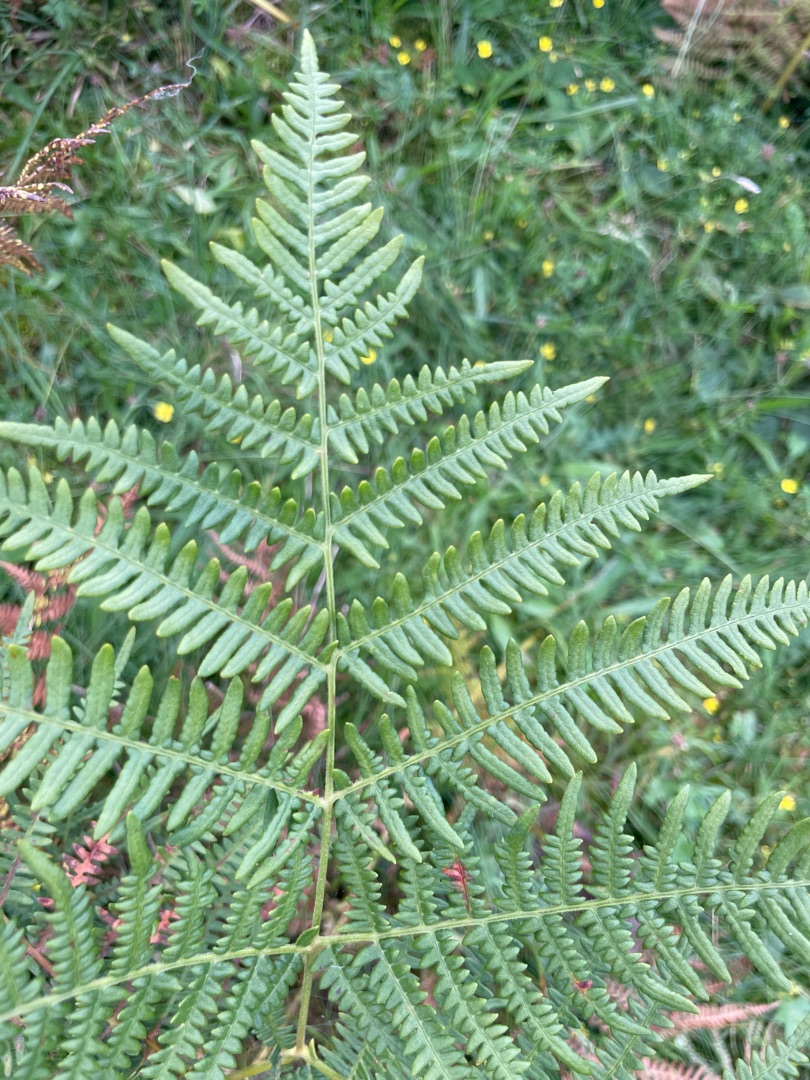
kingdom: Plantae
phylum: Tracheophyta
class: Polypodiopsida
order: Polypodiales
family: Dennstaedtiaceae
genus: Pteridium
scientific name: Pteridium aquilinum
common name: Ørnebregne
